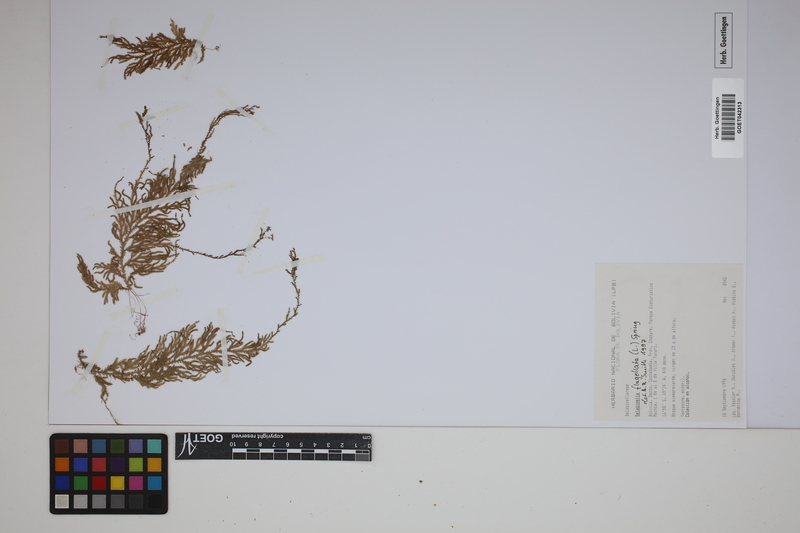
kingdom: Plantae
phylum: Tracheophyta
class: Lycopodiopsida
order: Selaginellales
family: Selaginellaceae
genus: Selaginella
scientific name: Selaginella flagellata
